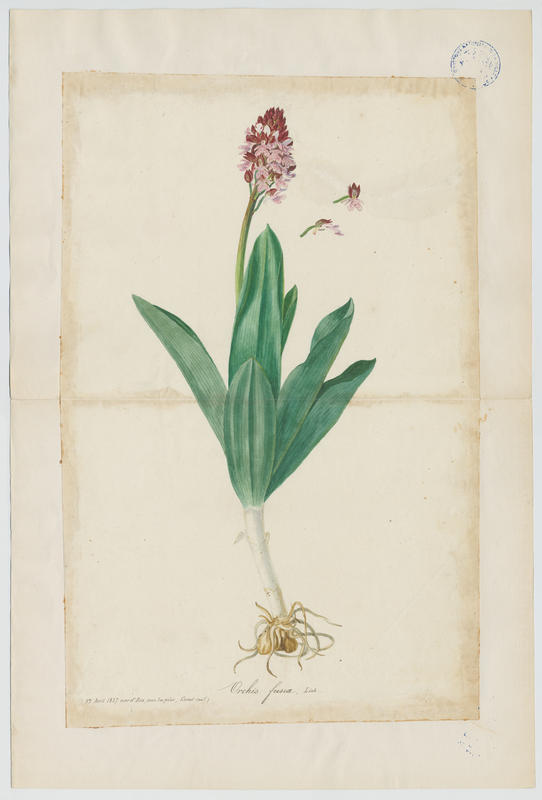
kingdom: Plantae
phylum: Tracheophyta
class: Liliopsida
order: Asparagales
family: Orchidaceae
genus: Orchis
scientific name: Orchis purpurea
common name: Lady orchid
